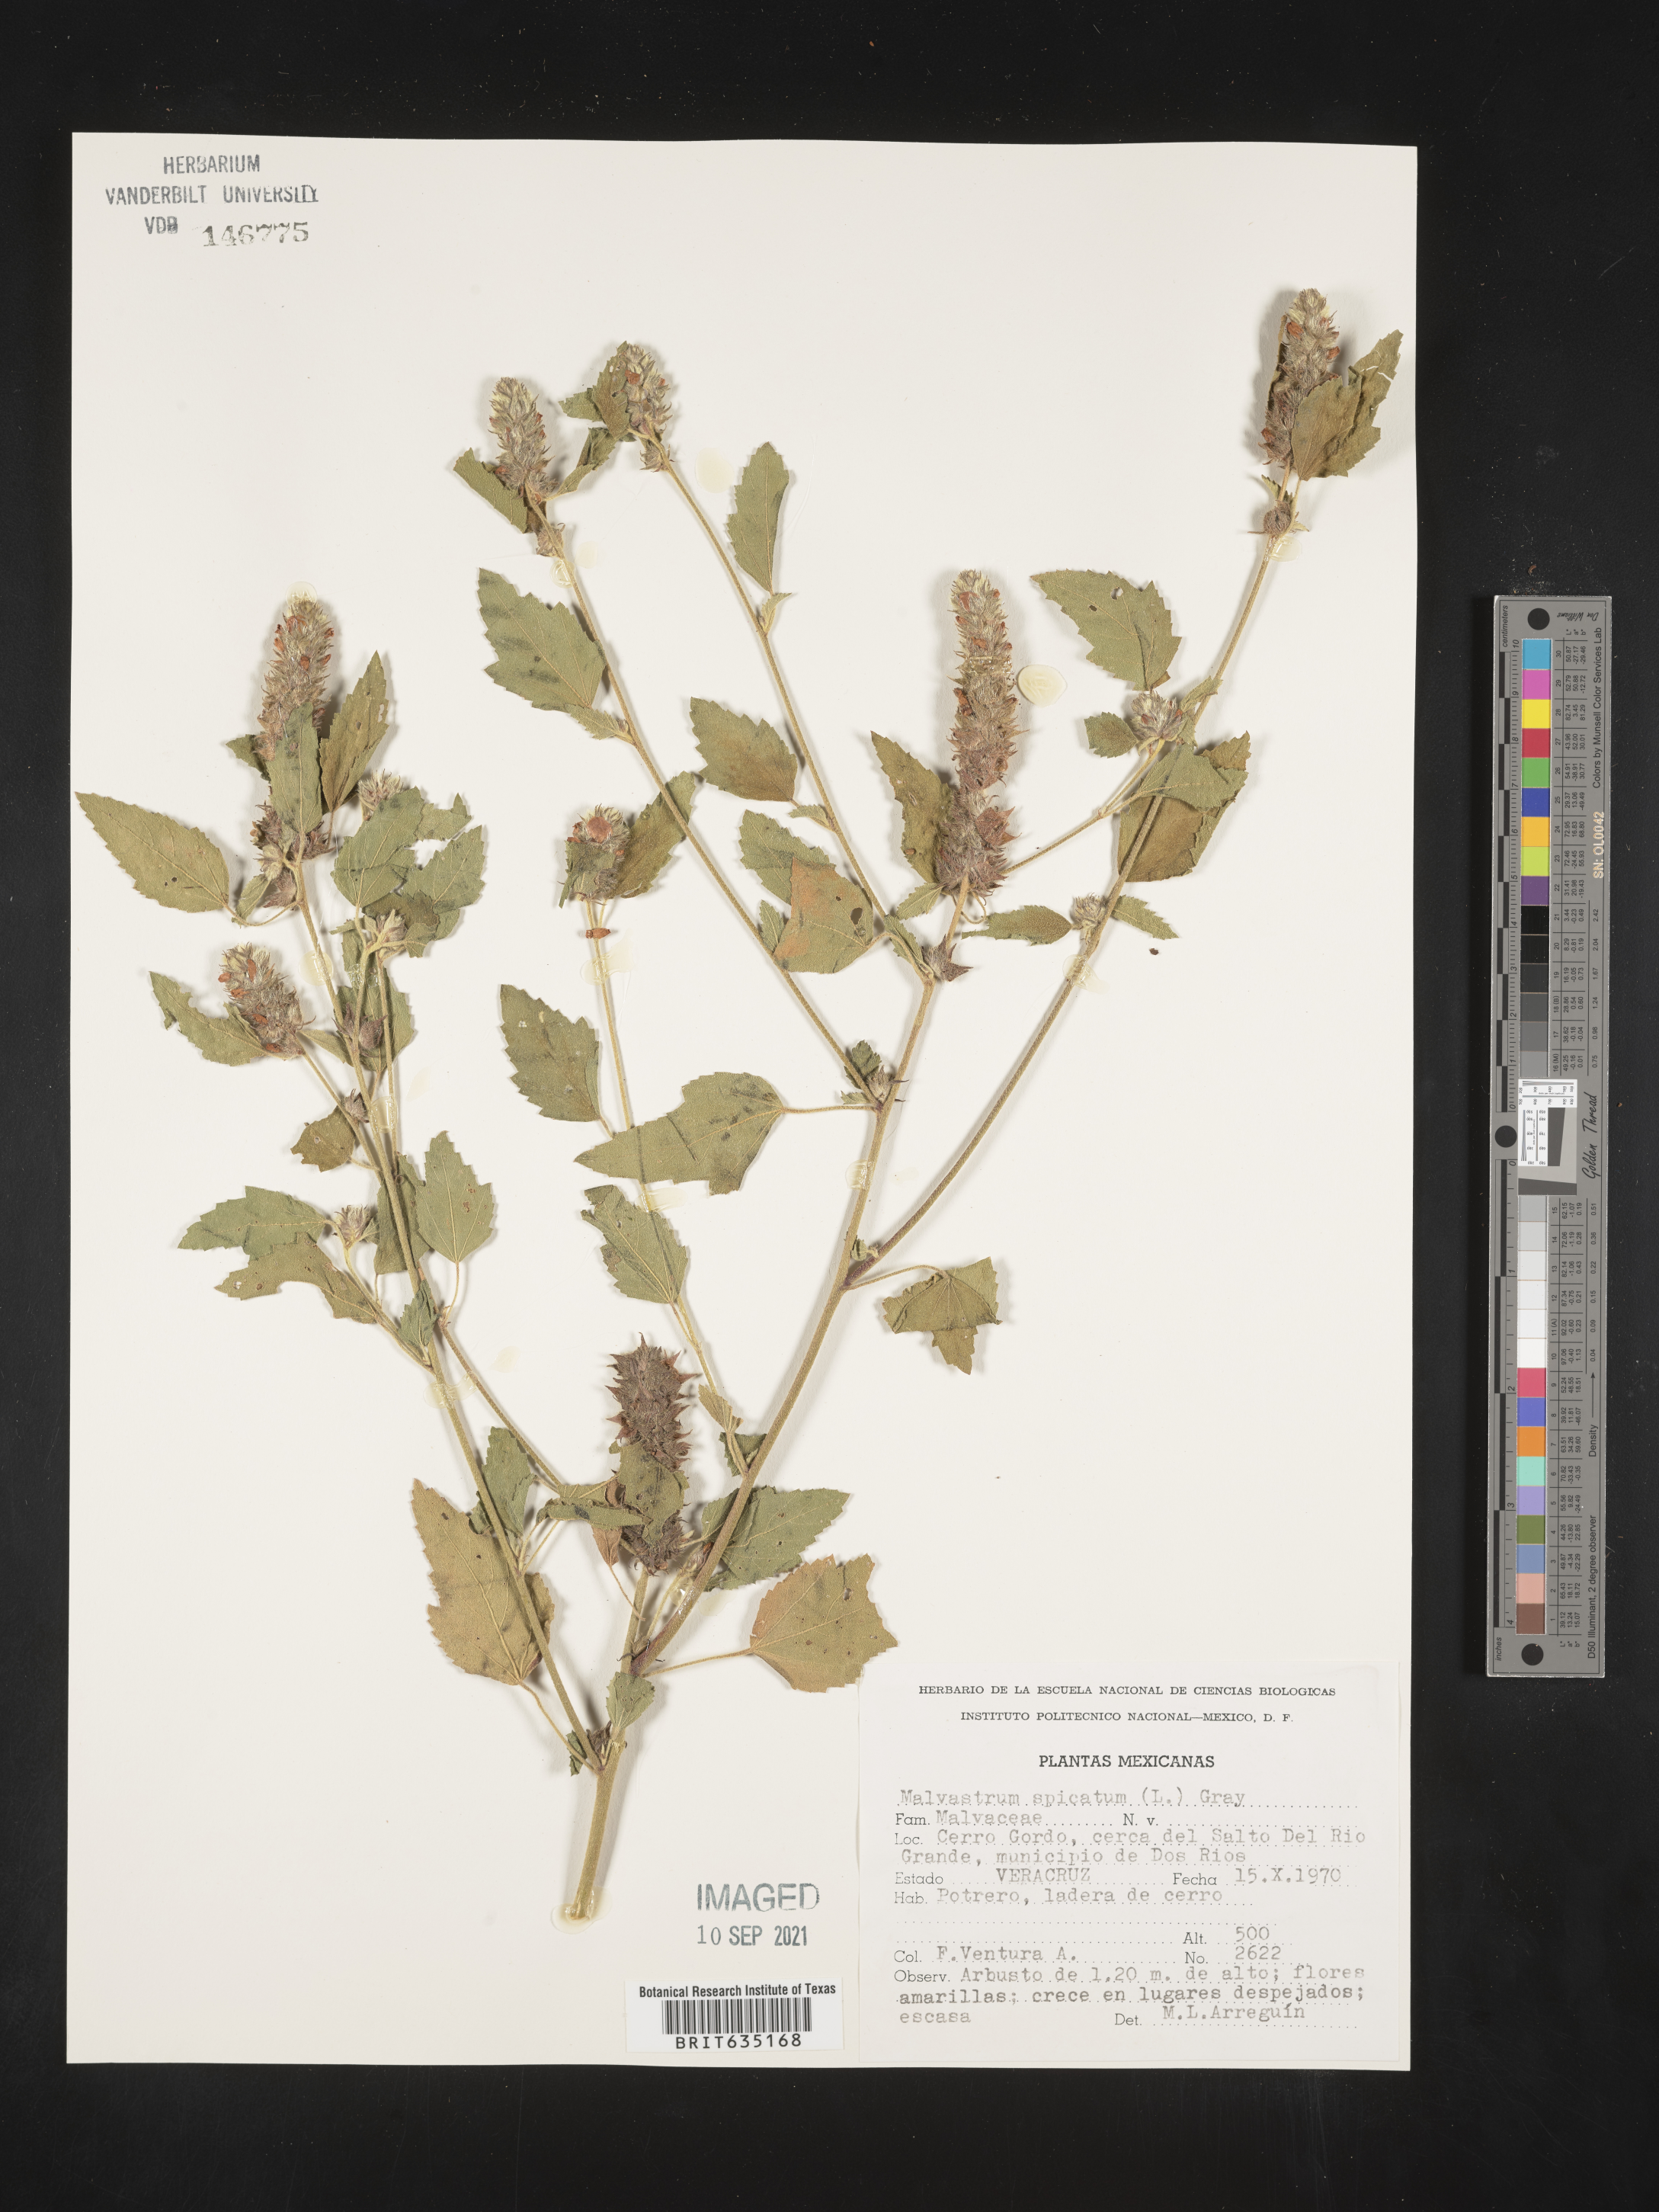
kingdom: Plantae
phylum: Tracheophyta
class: Magnoliopsida
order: Malvales
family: Malvaceae
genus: Malvastrum
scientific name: Malvastrum
